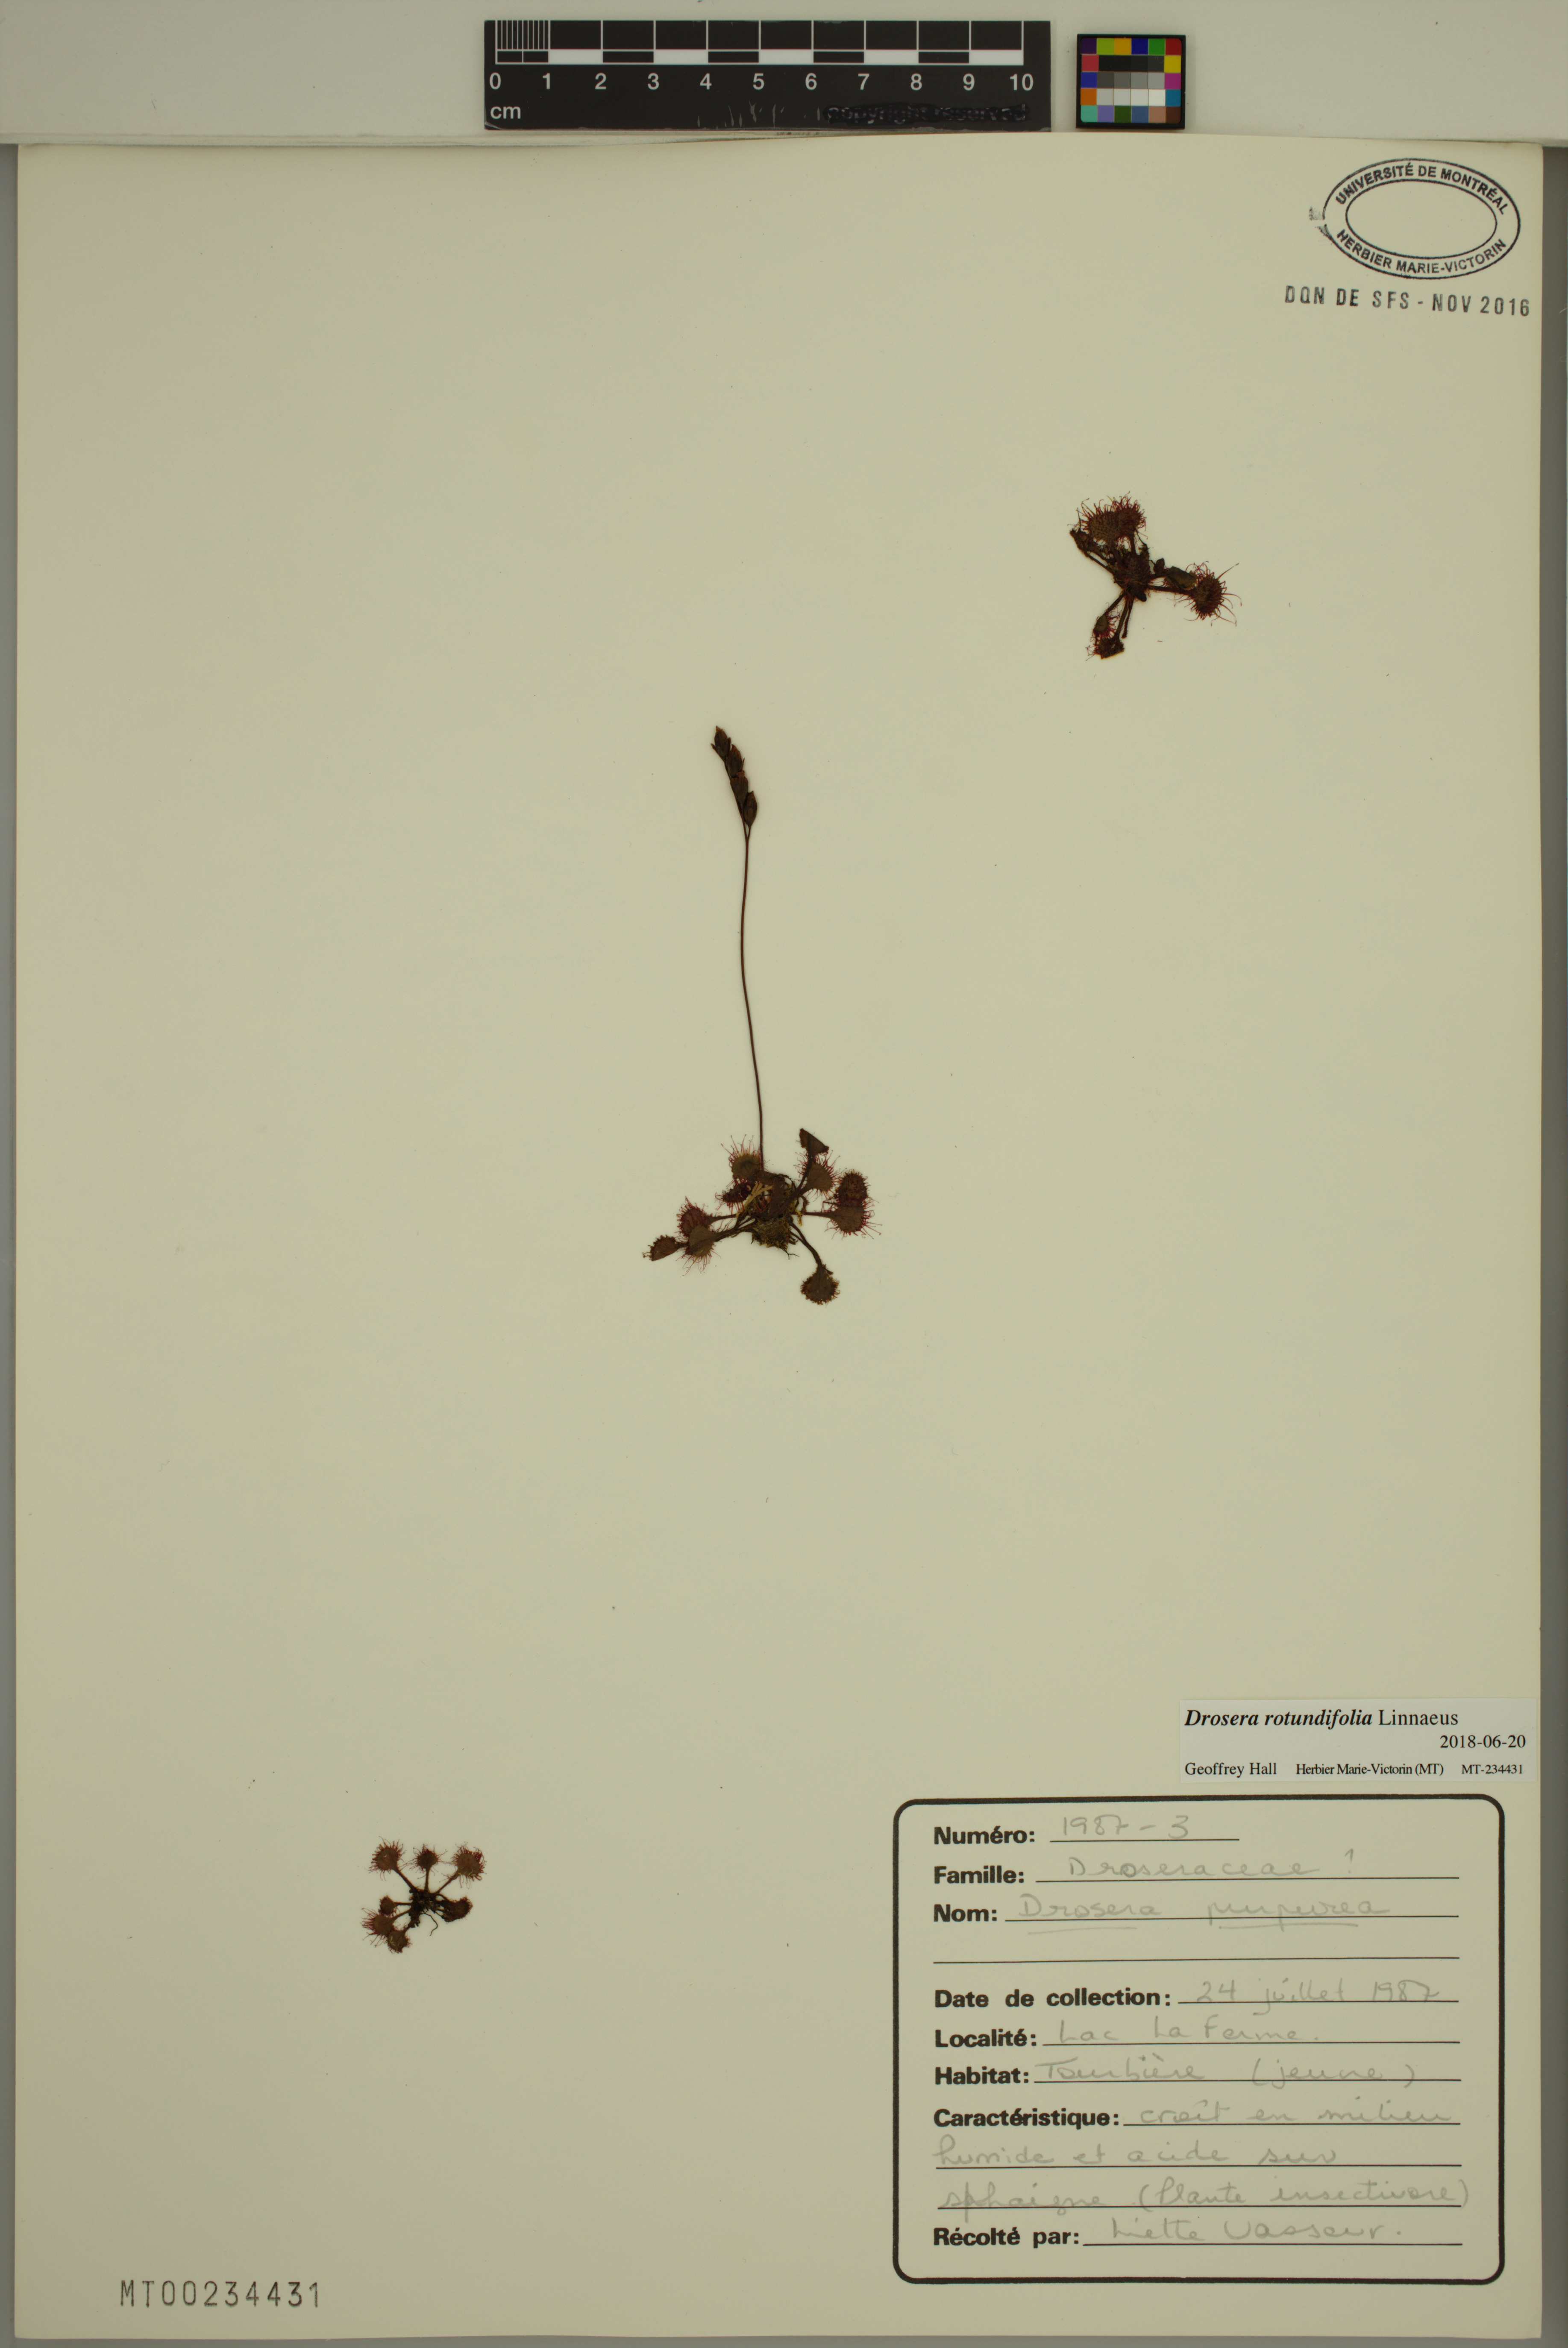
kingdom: Plantae
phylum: Tracheophyta
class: Magnoliopsida
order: Caryophyllales
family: Droseraceae
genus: Drosera
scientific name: Drosera rotundifolia
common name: Round-leaved sundew
